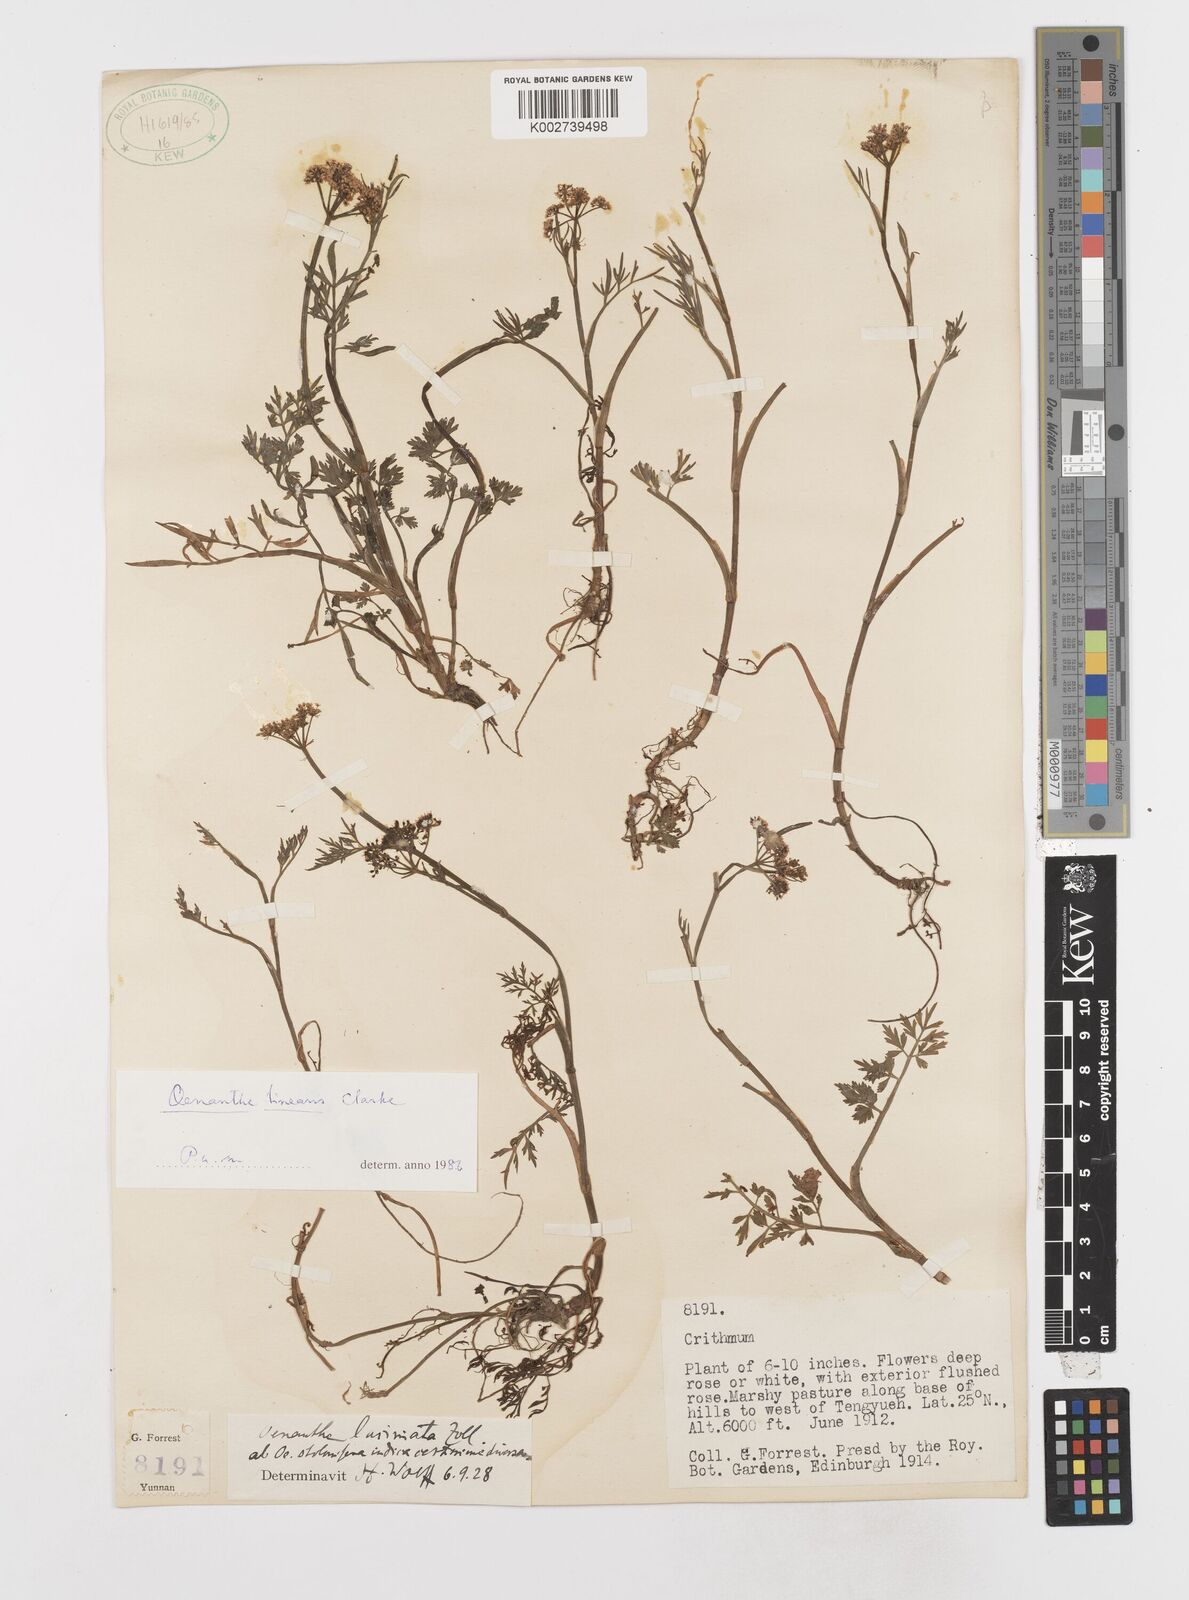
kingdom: Plantae
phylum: Tracheophyta
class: Magnoliopsida
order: Apiales
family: Apiaceae
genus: Oenanthe
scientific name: Oenanthe linearis
